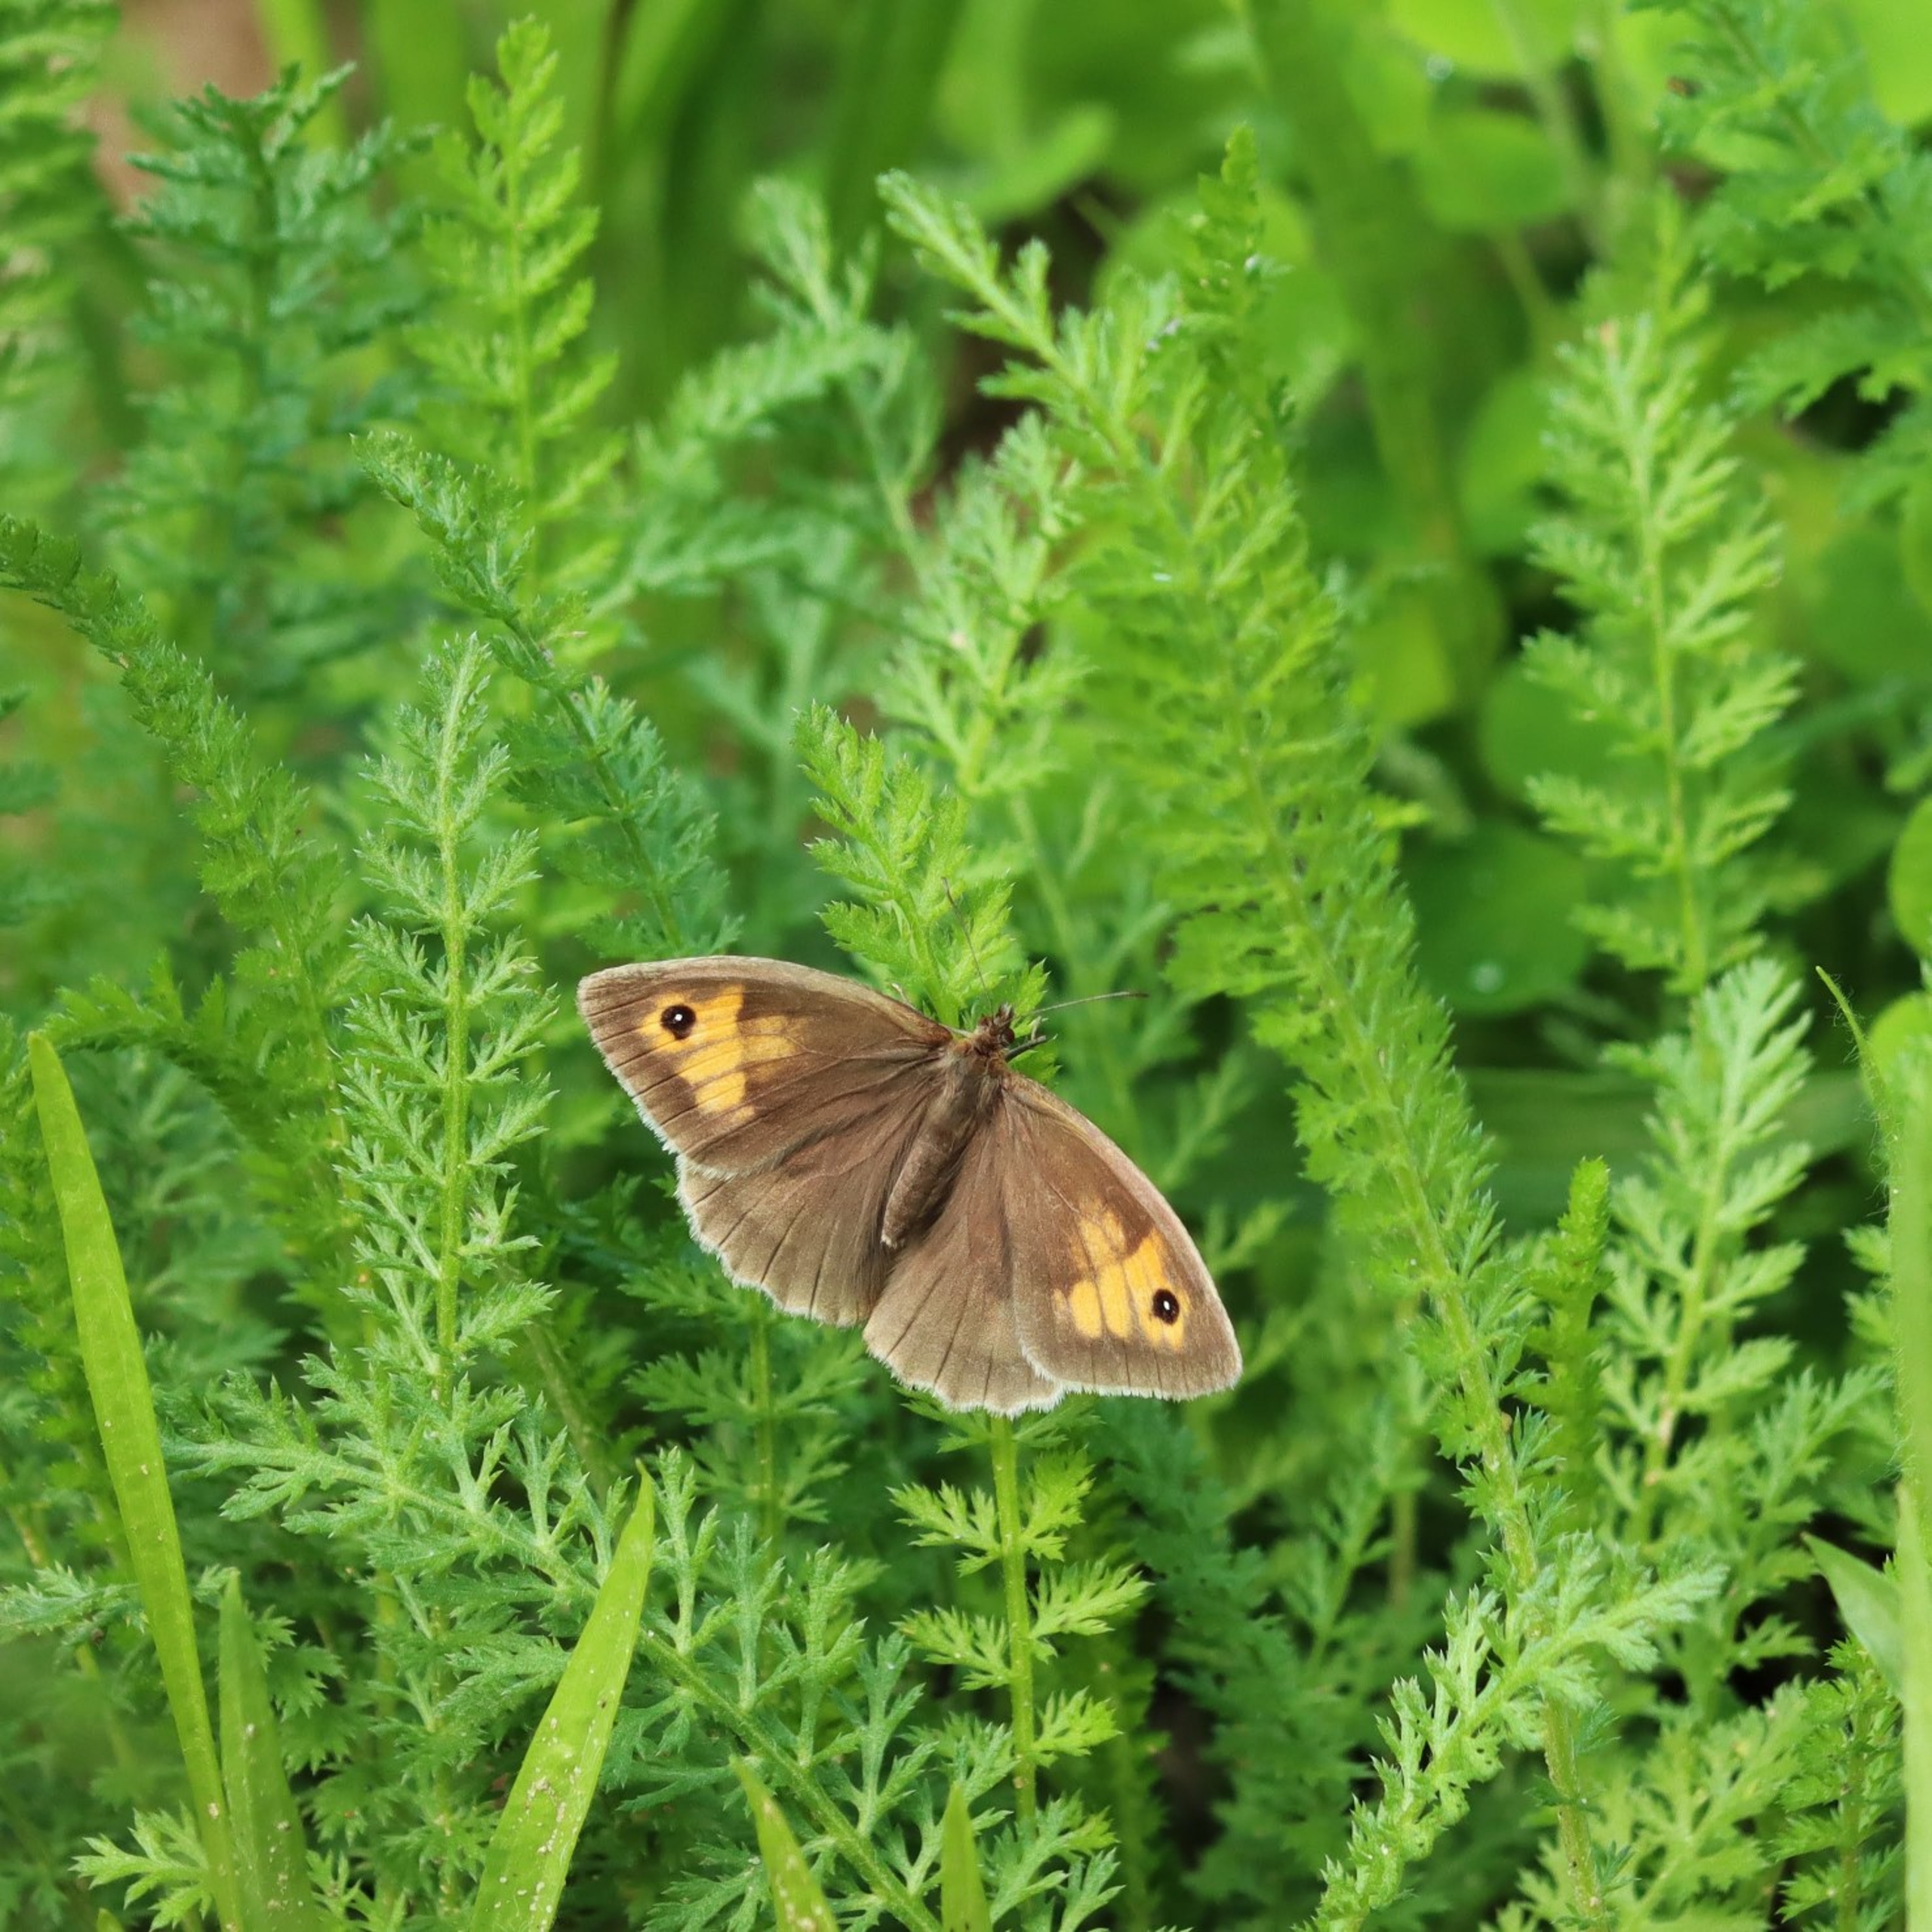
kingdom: Animalia
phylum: Arthropoda
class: Insecta
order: Lepidoptera
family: Nymphalidae
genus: Maniola
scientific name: Maniola jurtina
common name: Græsrandøje
